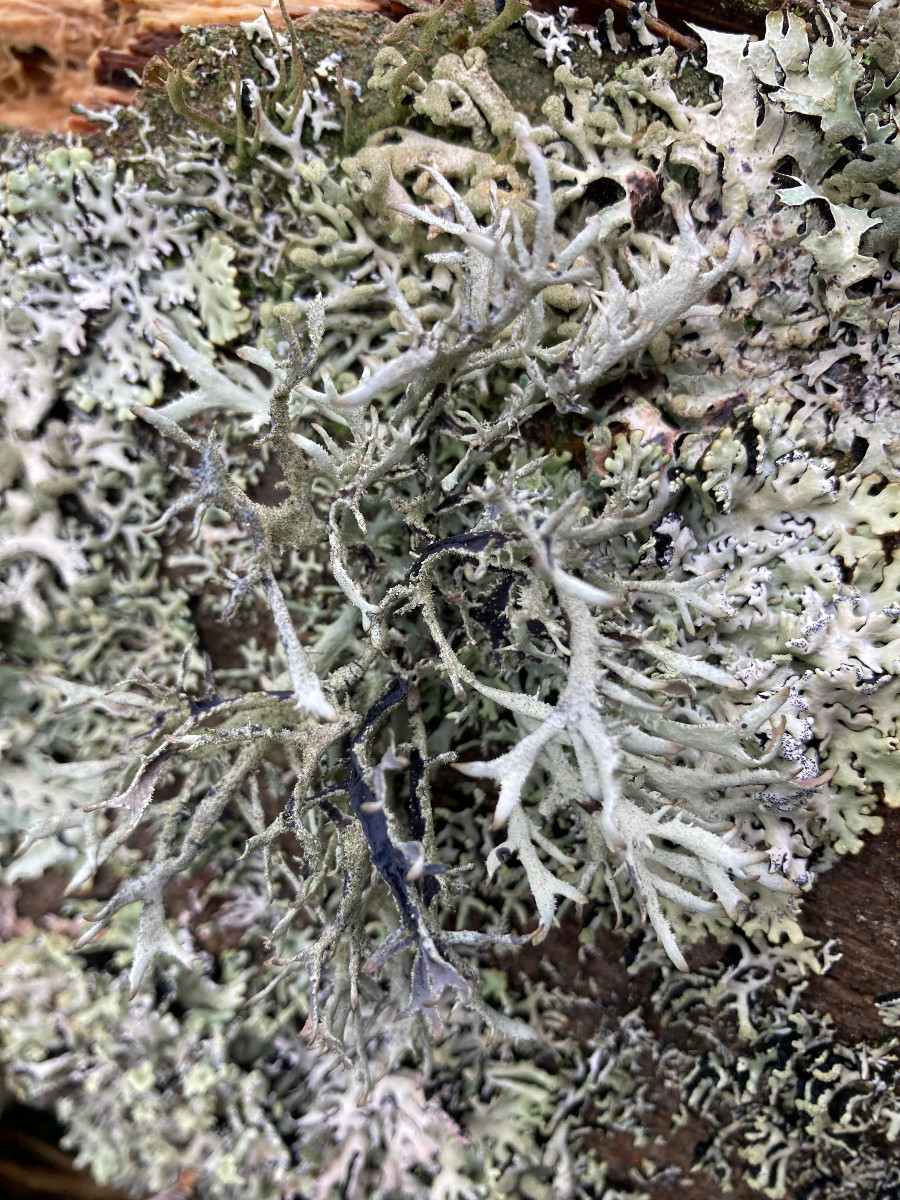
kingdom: Fungi
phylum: Ascomycota
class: Lecanoromycetes
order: Lecanorales
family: Parmeliaceae
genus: Pseudevernia
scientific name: Pseudevernia furfuracea
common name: grå fyrrelav
